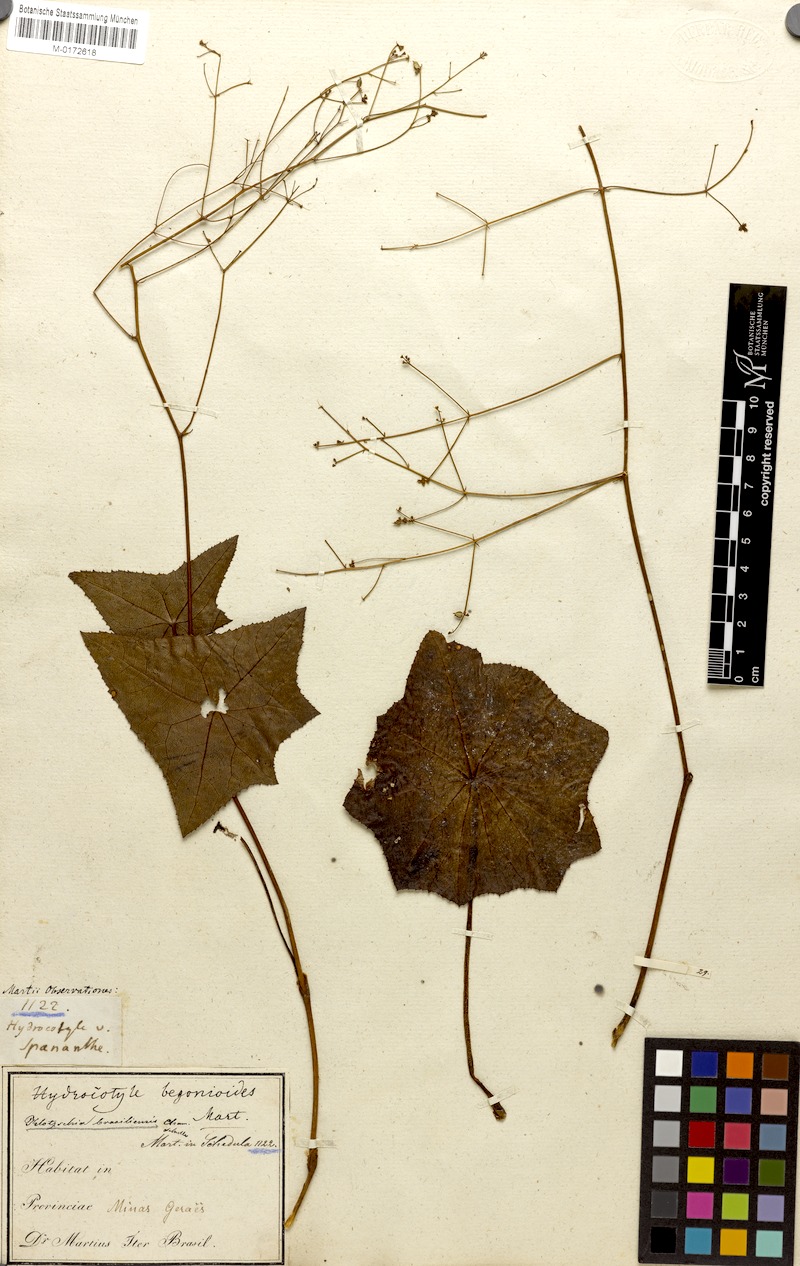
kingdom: Plantae
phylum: Tracheophyta
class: Magnoliopsida
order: Apiales
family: Apiaceae
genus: Klotzschia
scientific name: Klotzschia brasiliensis
